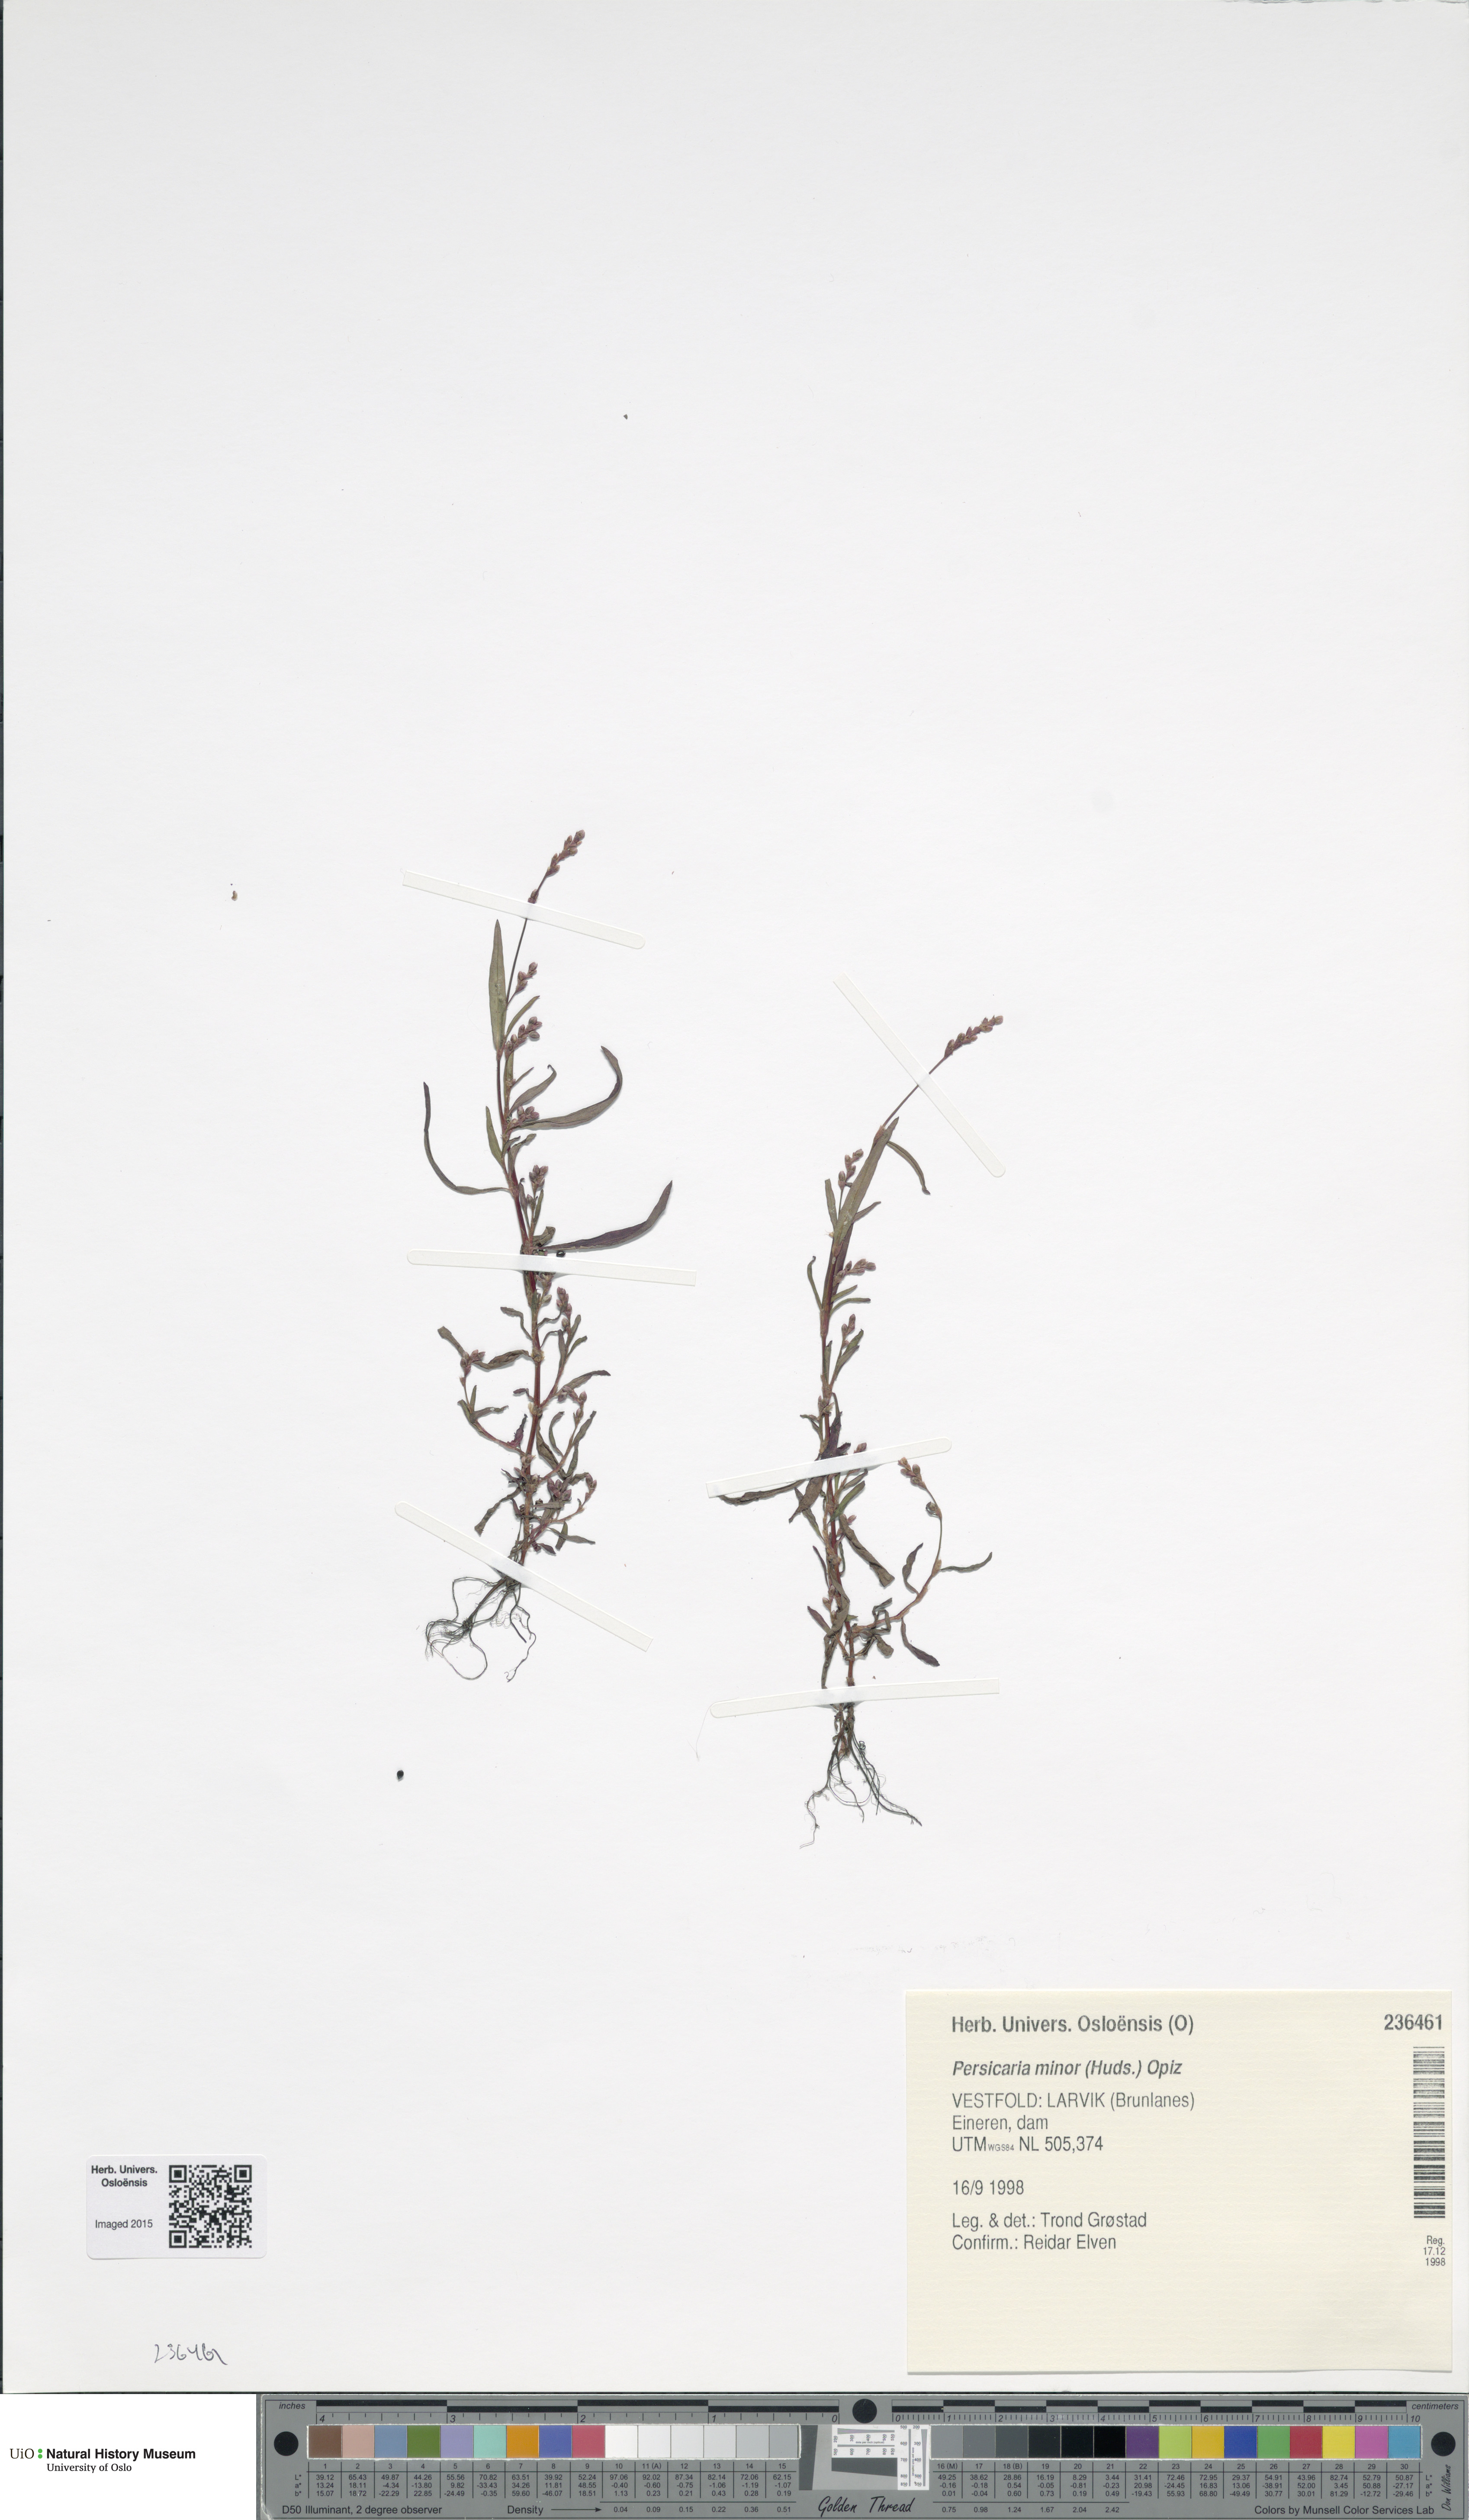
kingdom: Plantae
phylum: Tracheophyta
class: Magnoliopsida
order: Caryophyllales
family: Polygonaceae
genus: Persicaria
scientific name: Persicaria minor
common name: Small water-pepper
